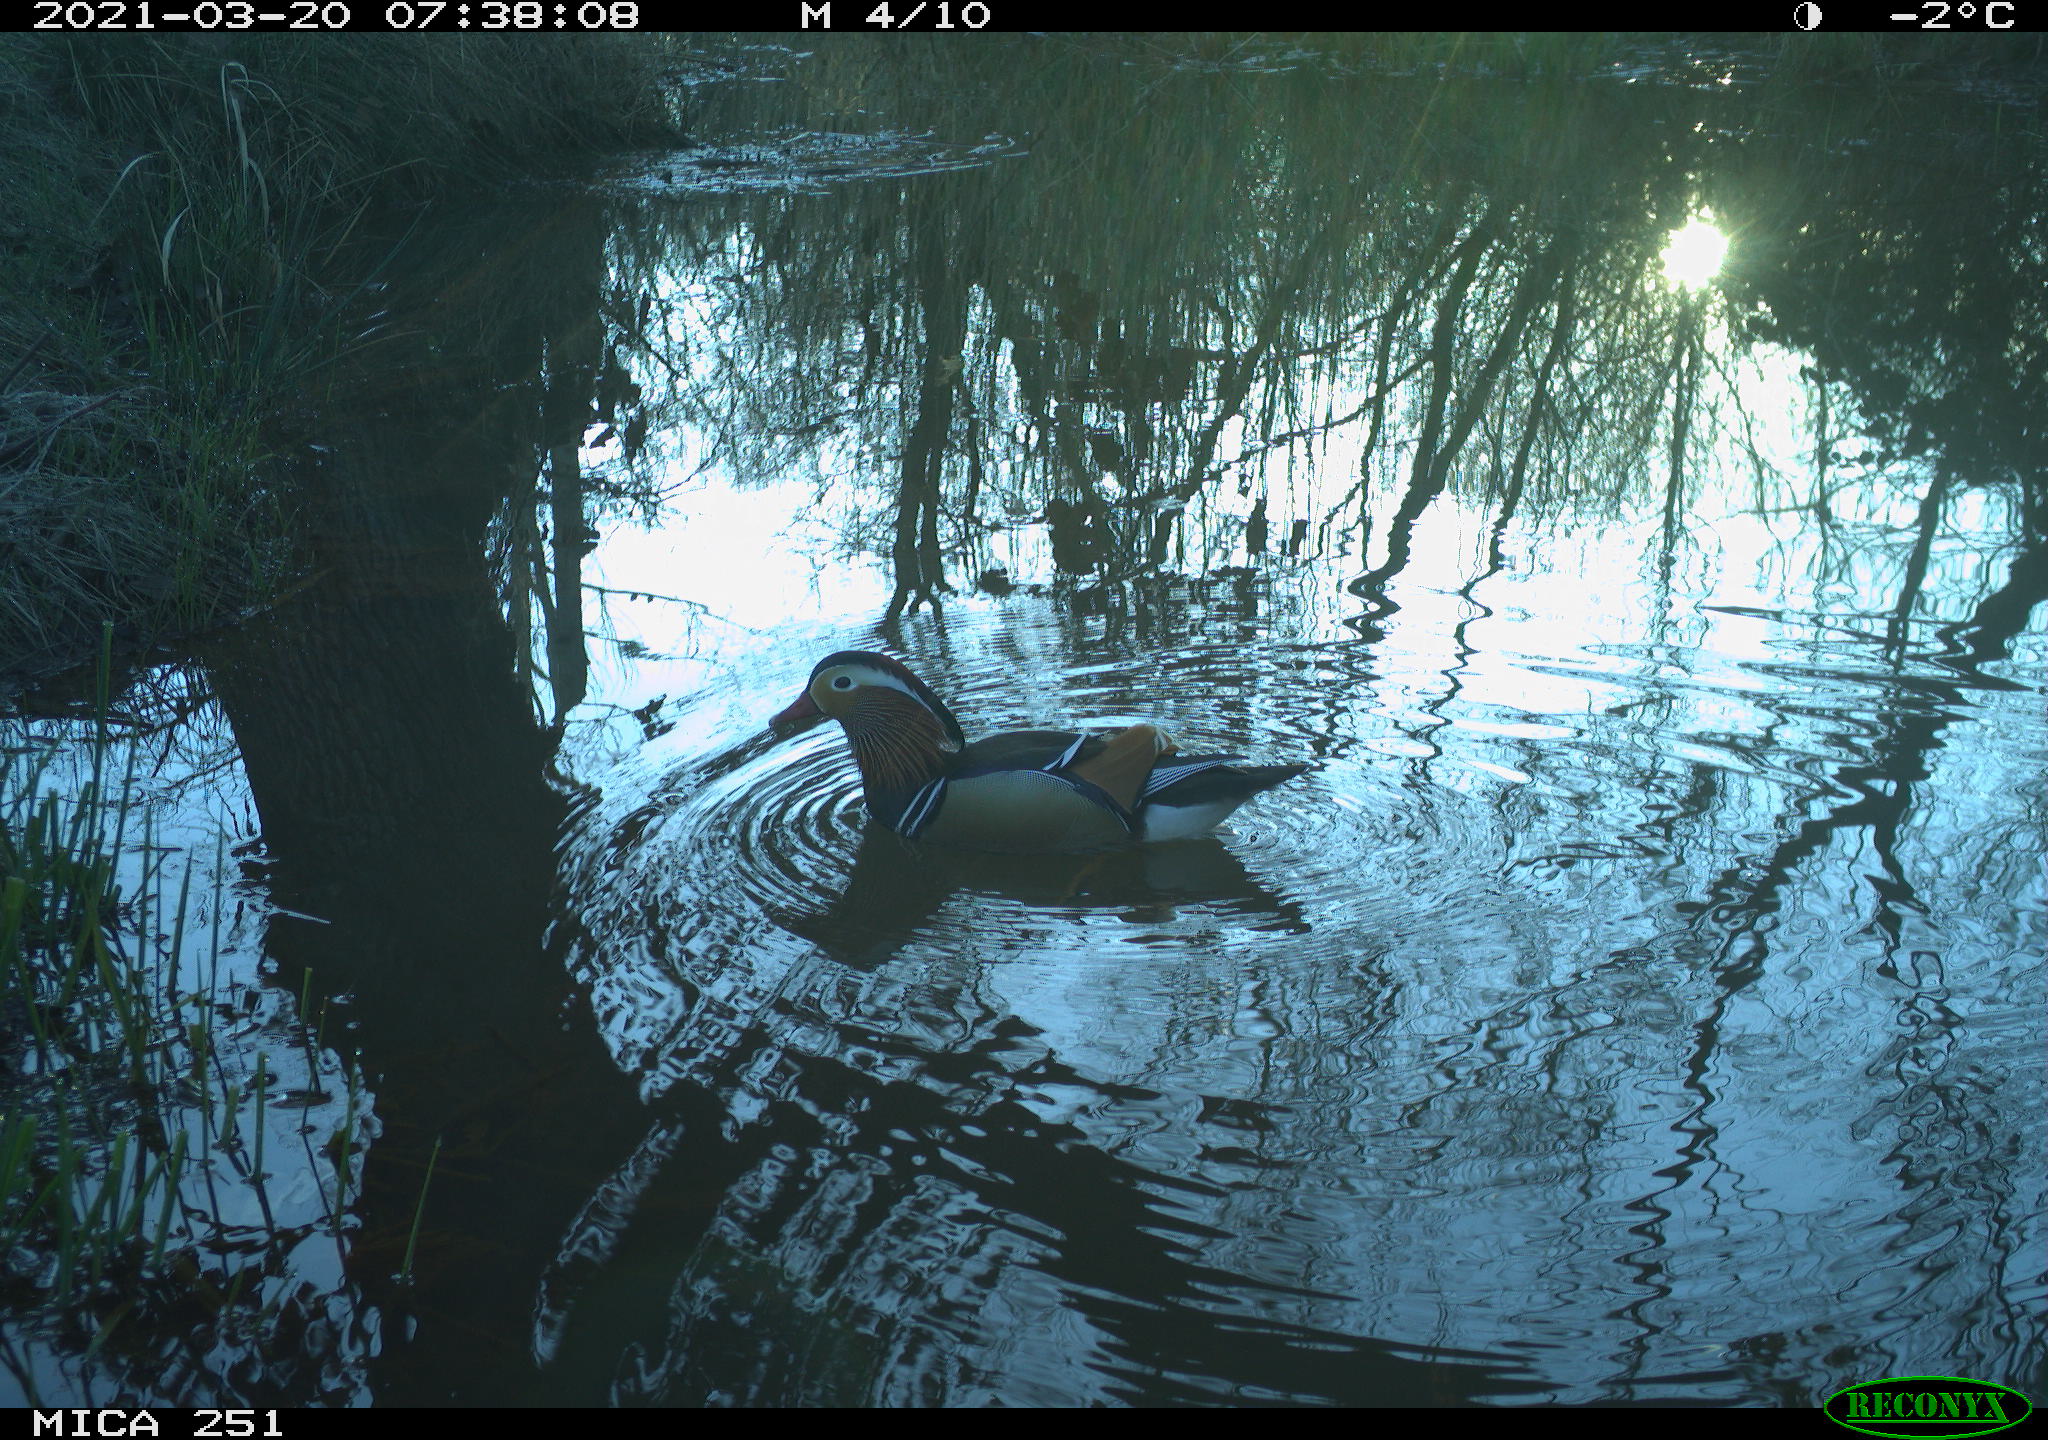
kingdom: Animalia
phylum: Chordata
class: Aves
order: Anseriformes
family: Anatidae
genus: Aix
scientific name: Aix galericulata
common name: Mandarin duck
